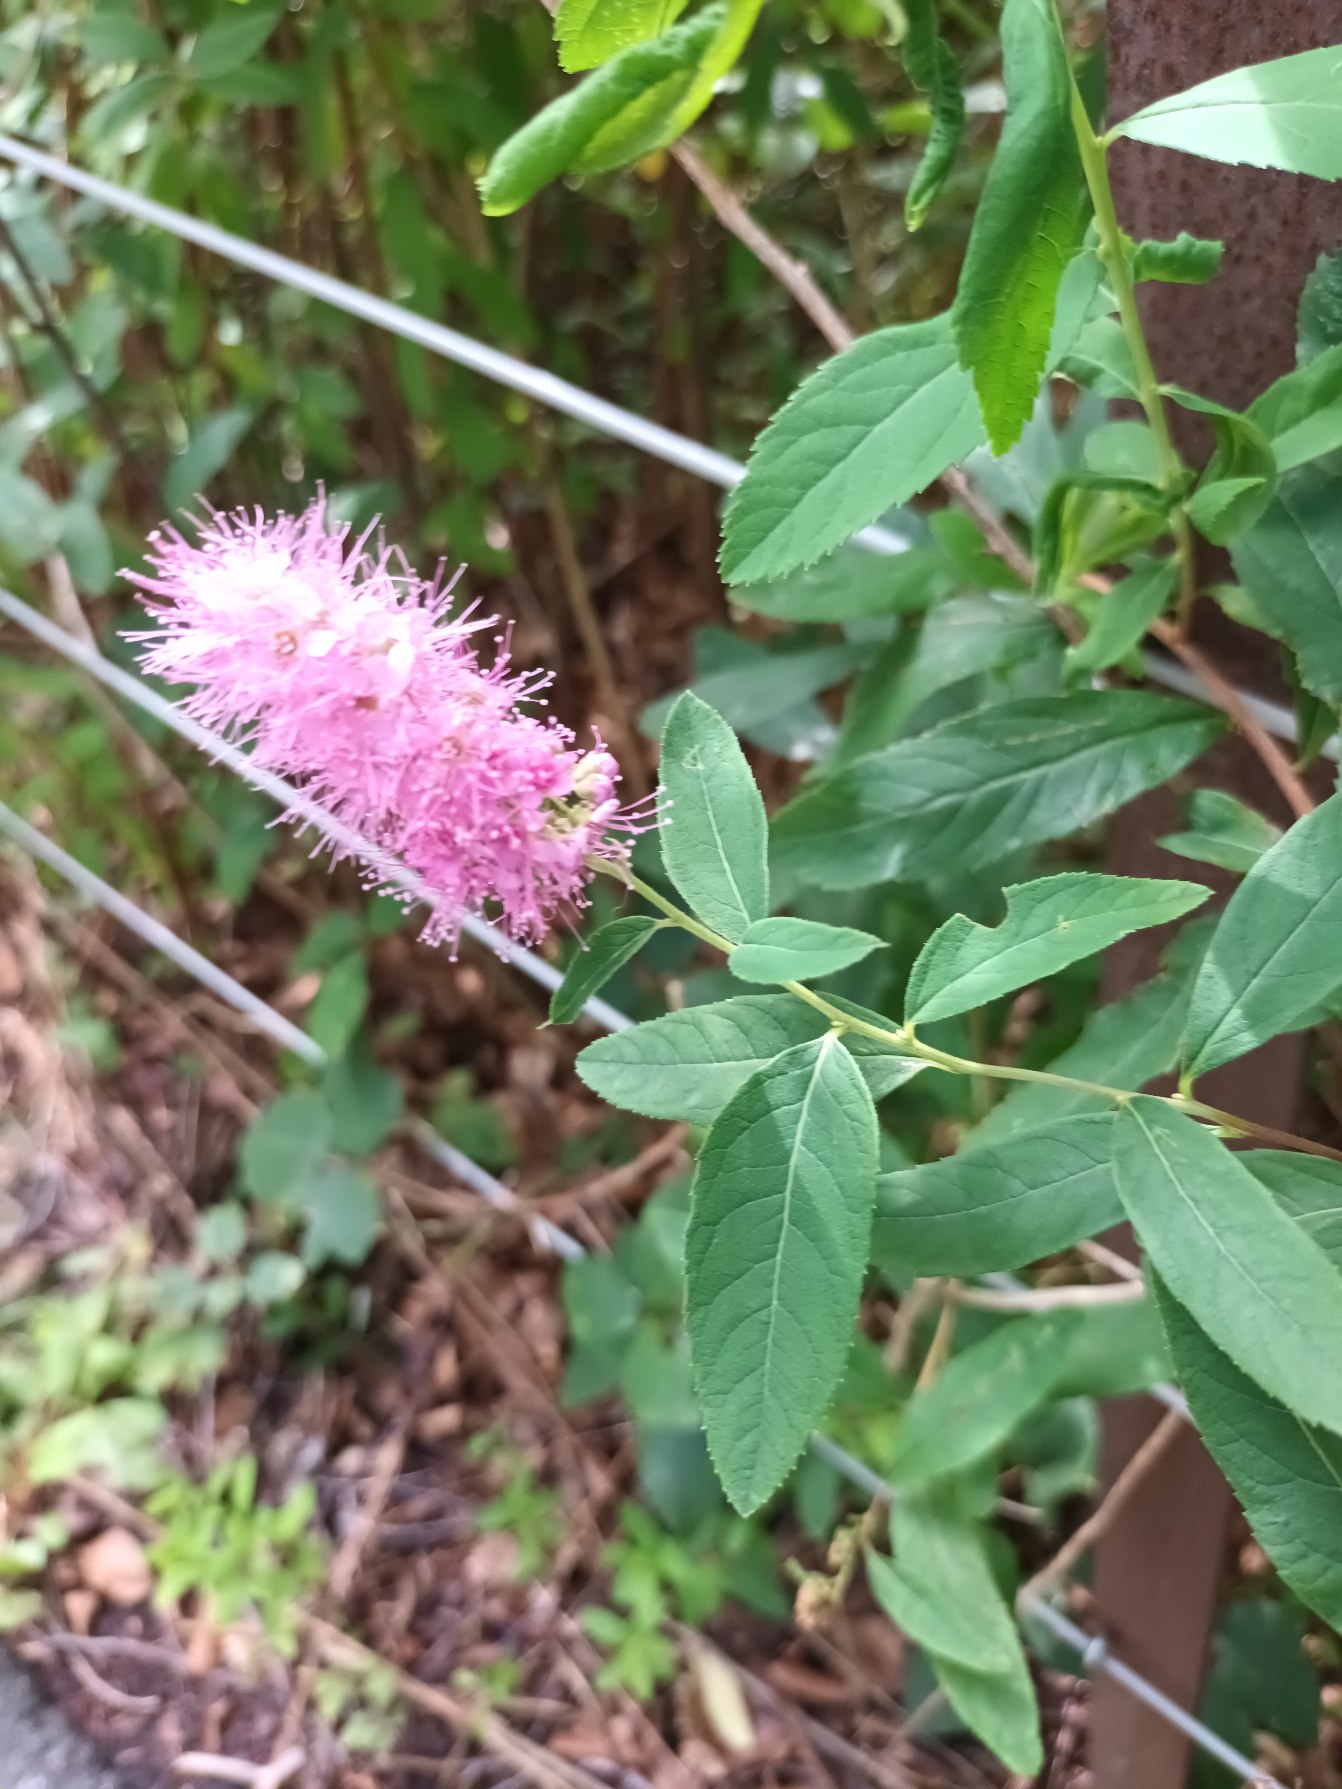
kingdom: Plantae
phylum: Tracheophyta
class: Magnoliopsida
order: Rosales
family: Rosaceae
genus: Spiraea
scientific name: Spiraea billardii
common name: Klase-spiræa
